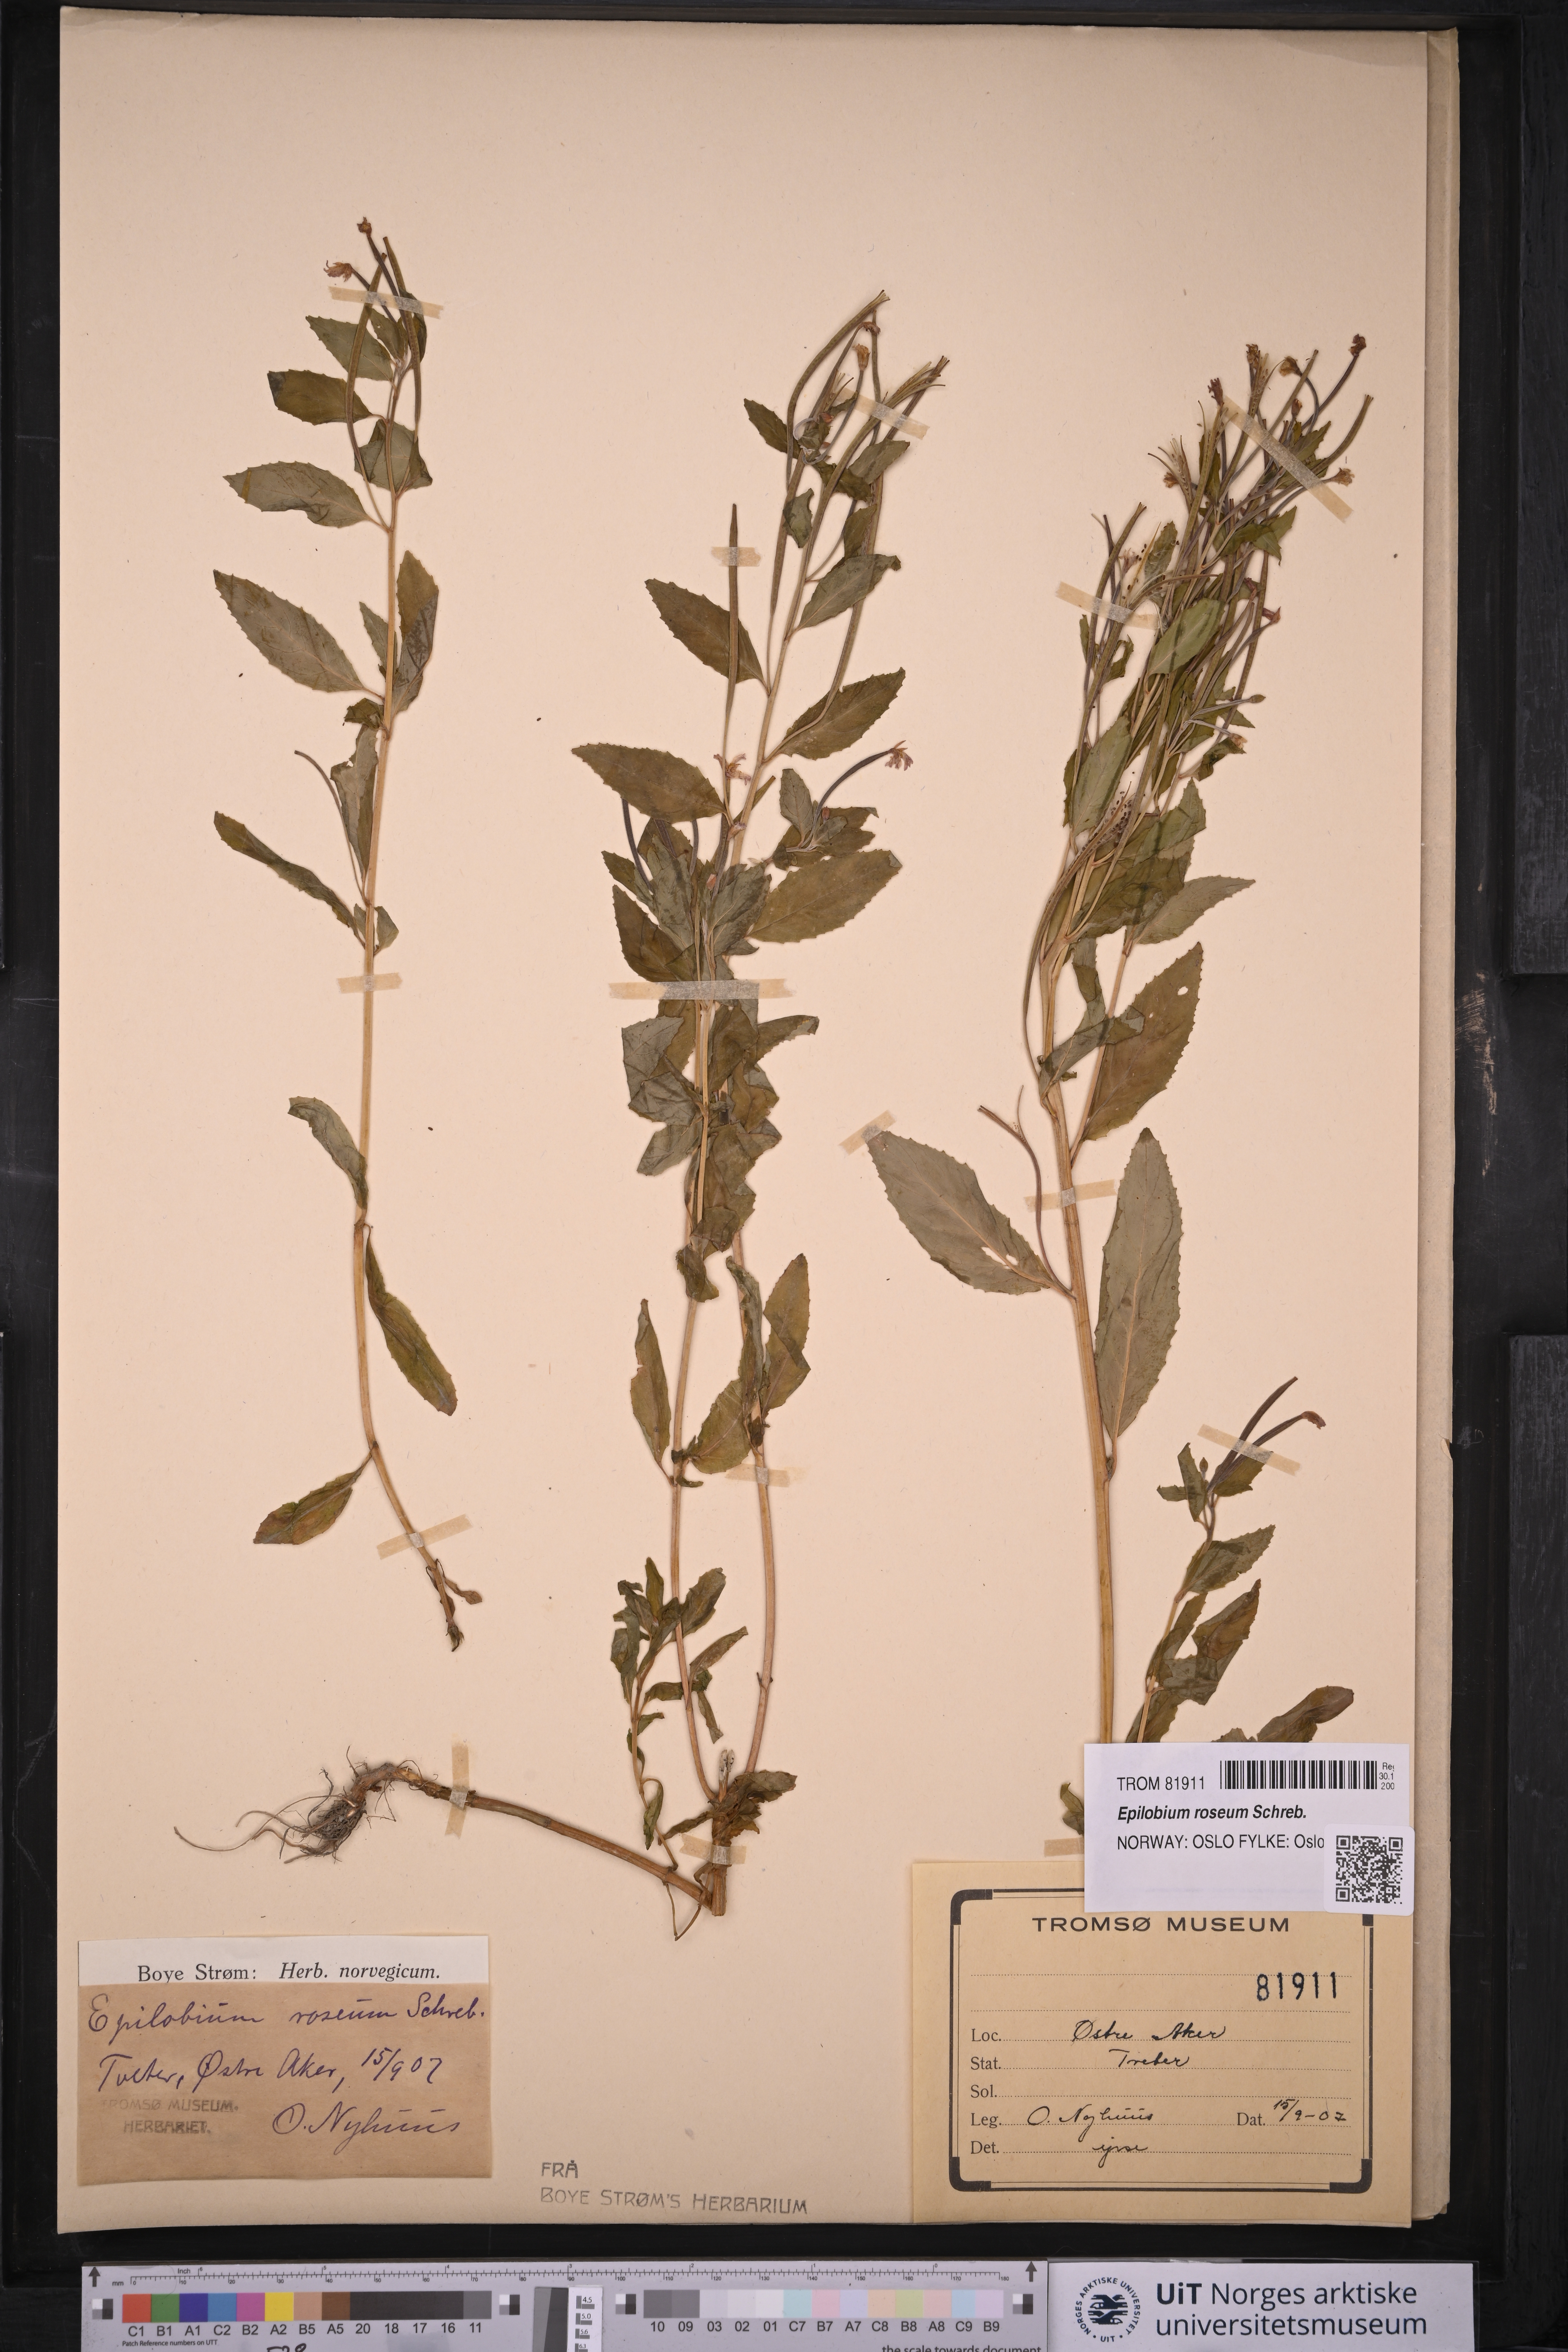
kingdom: Plantae
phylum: Tracheophyta
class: Magnoliopsida
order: Myrtales
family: Onagraceae
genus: Epilobium
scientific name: Epilobium roseum
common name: Pale willowherb
